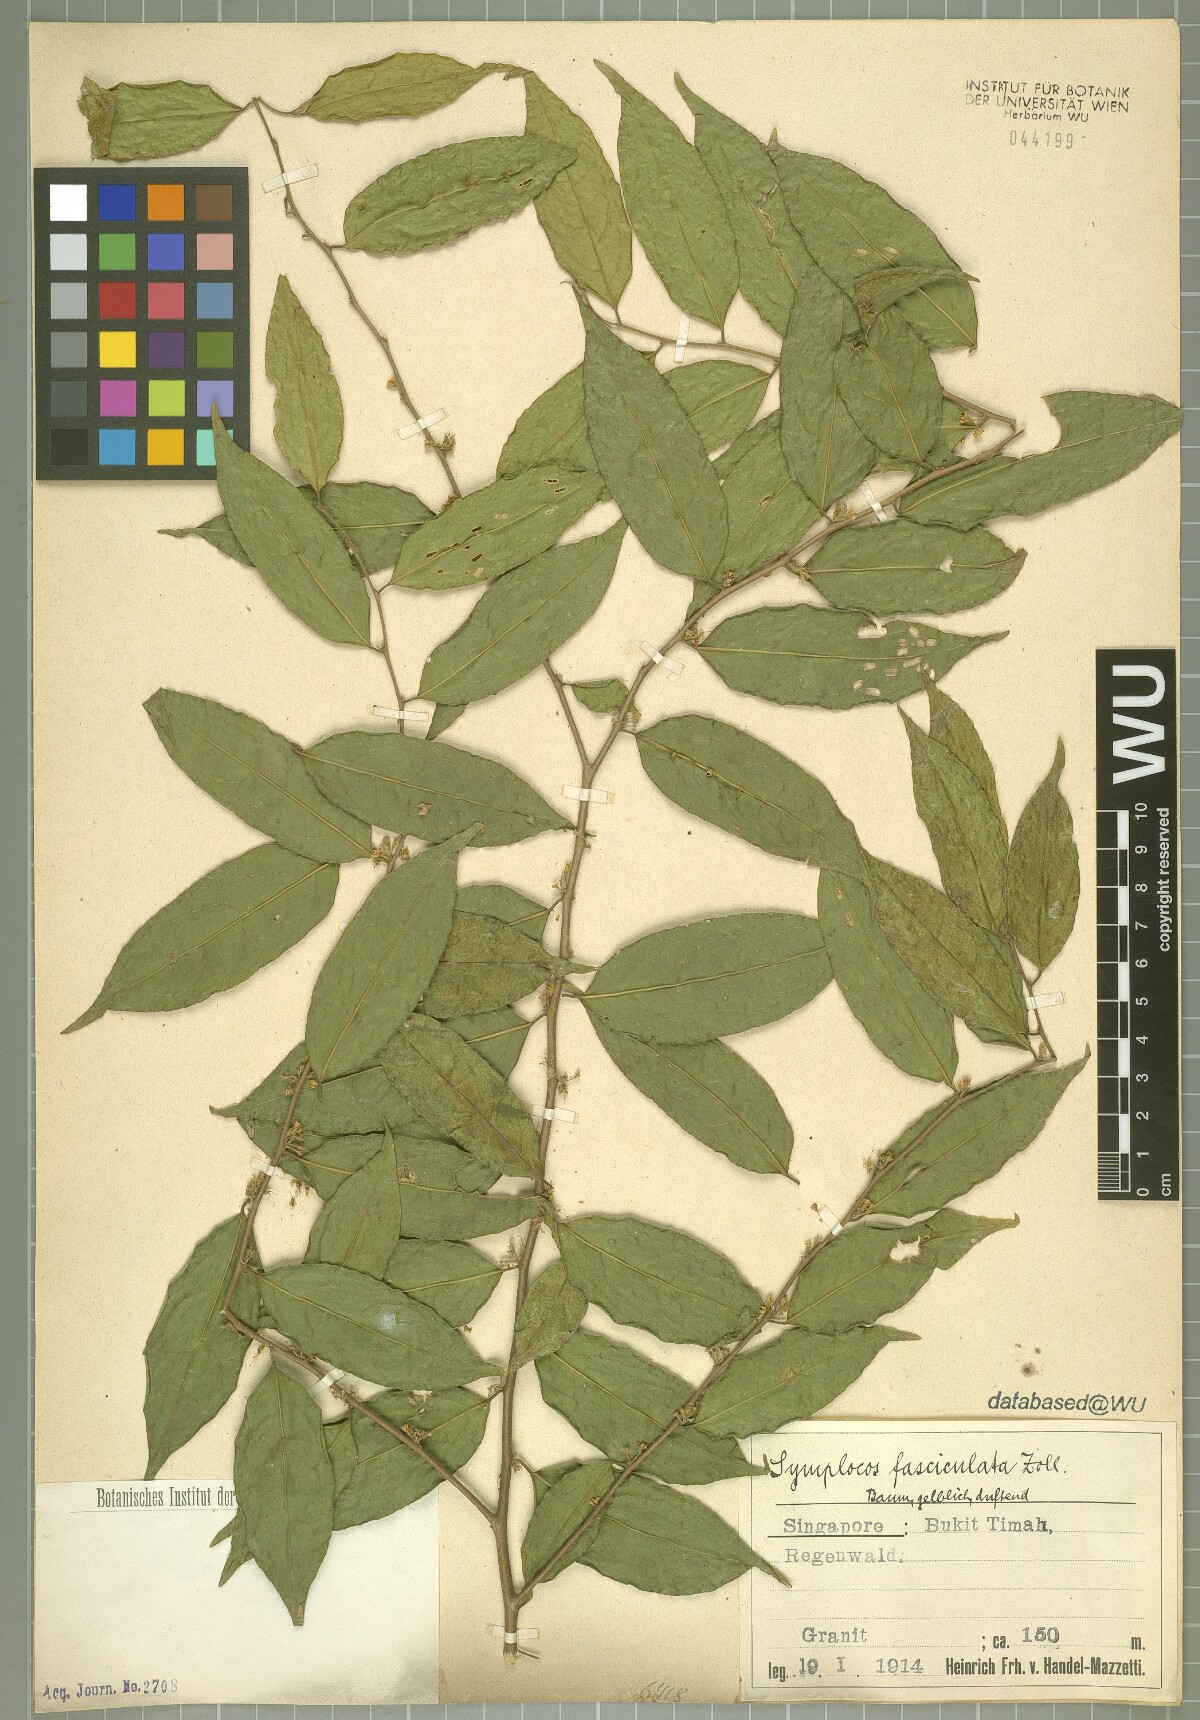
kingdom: Plantae
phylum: Tracheophyta
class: Magnoliopsida
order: Ericales
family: Symplocaceae
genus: Symplocos
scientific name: Symplocos fasciculata
